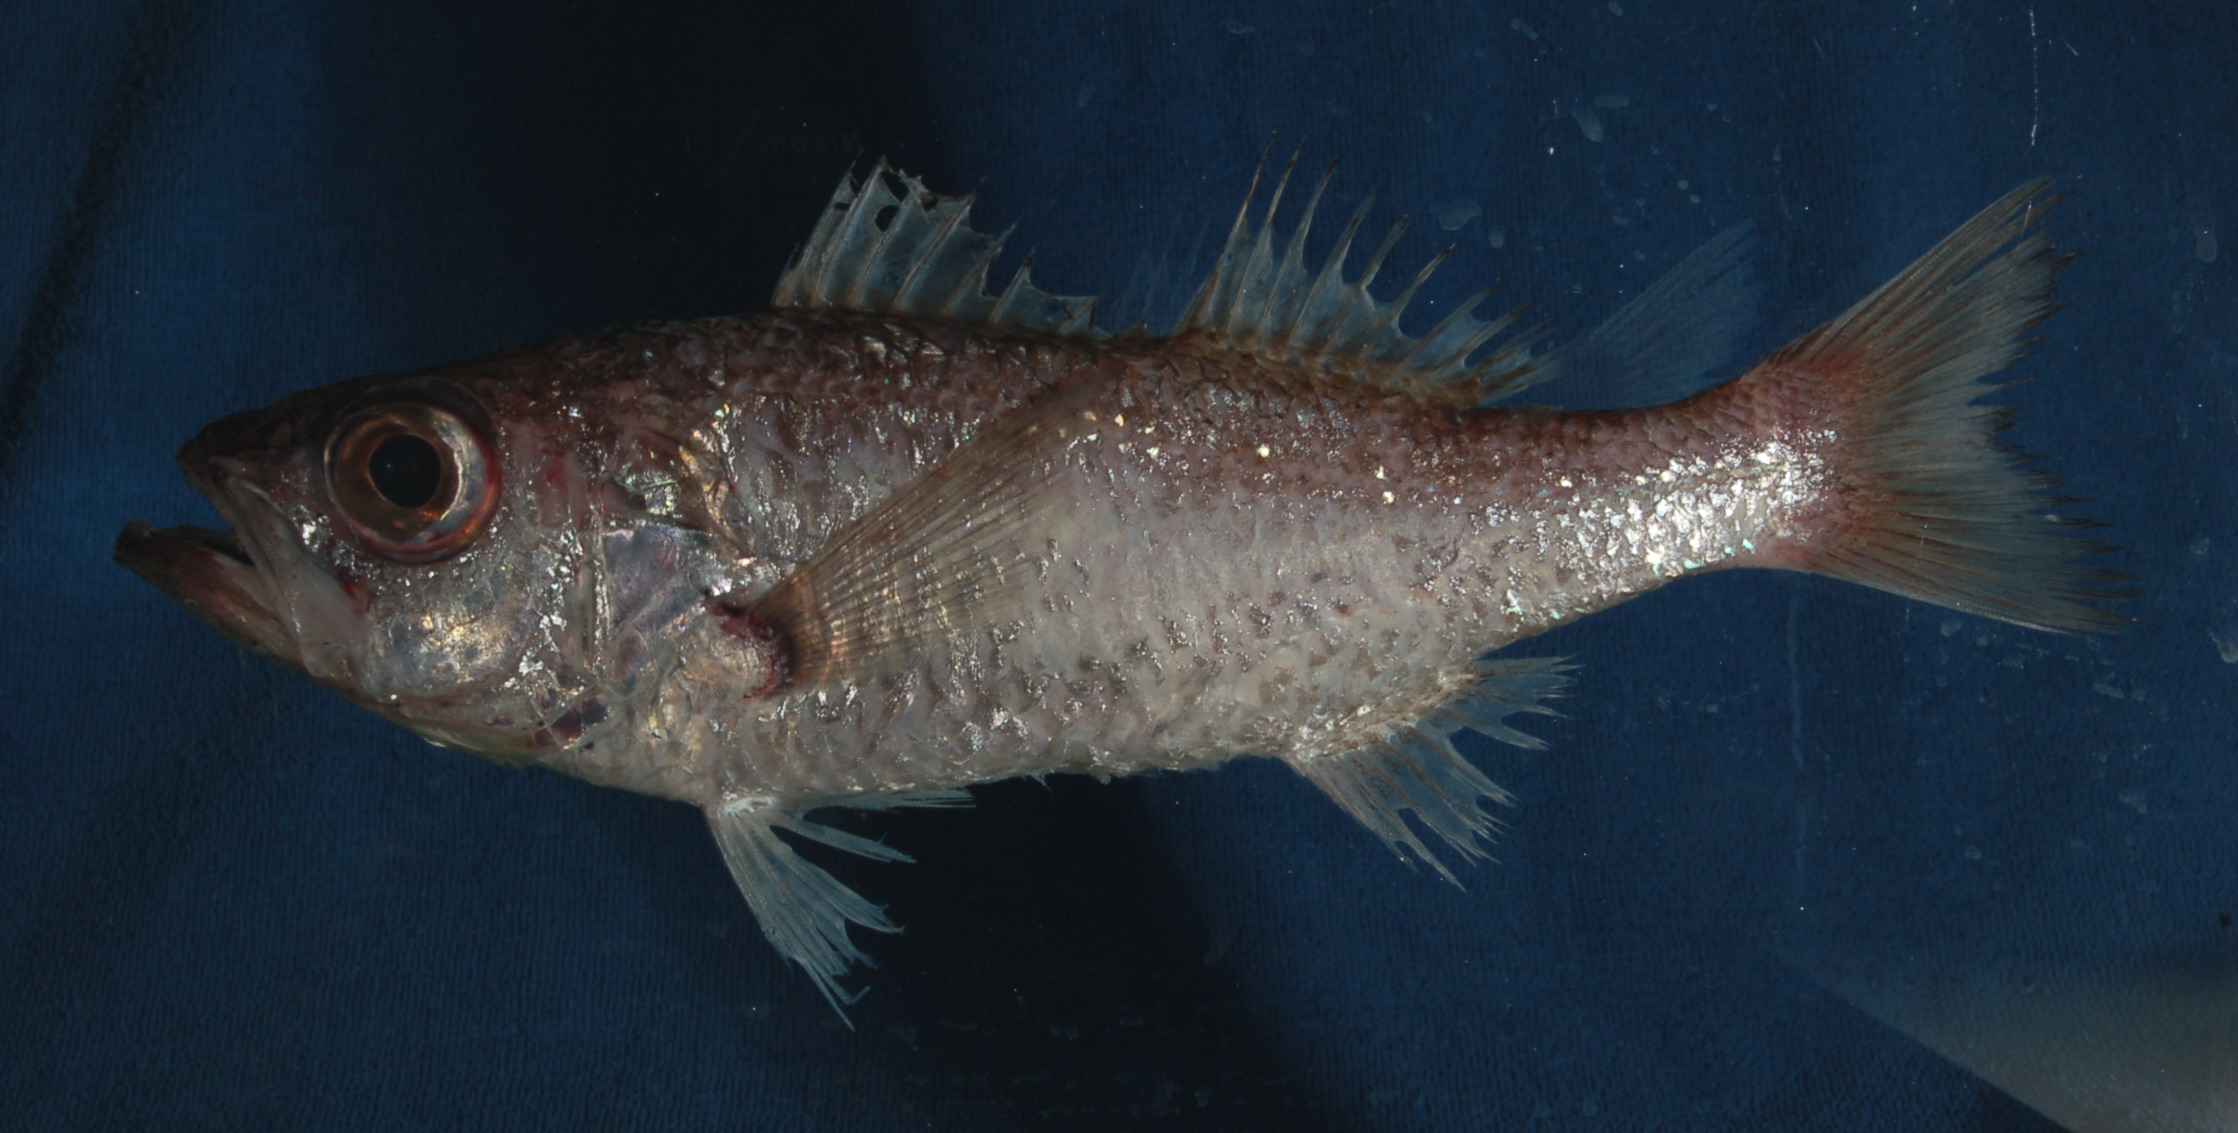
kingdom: Animalia
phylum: Chordata
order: Perciformes
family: Acropomatidae
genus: Neoscombrops
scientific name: Neoscombrops cynodon
